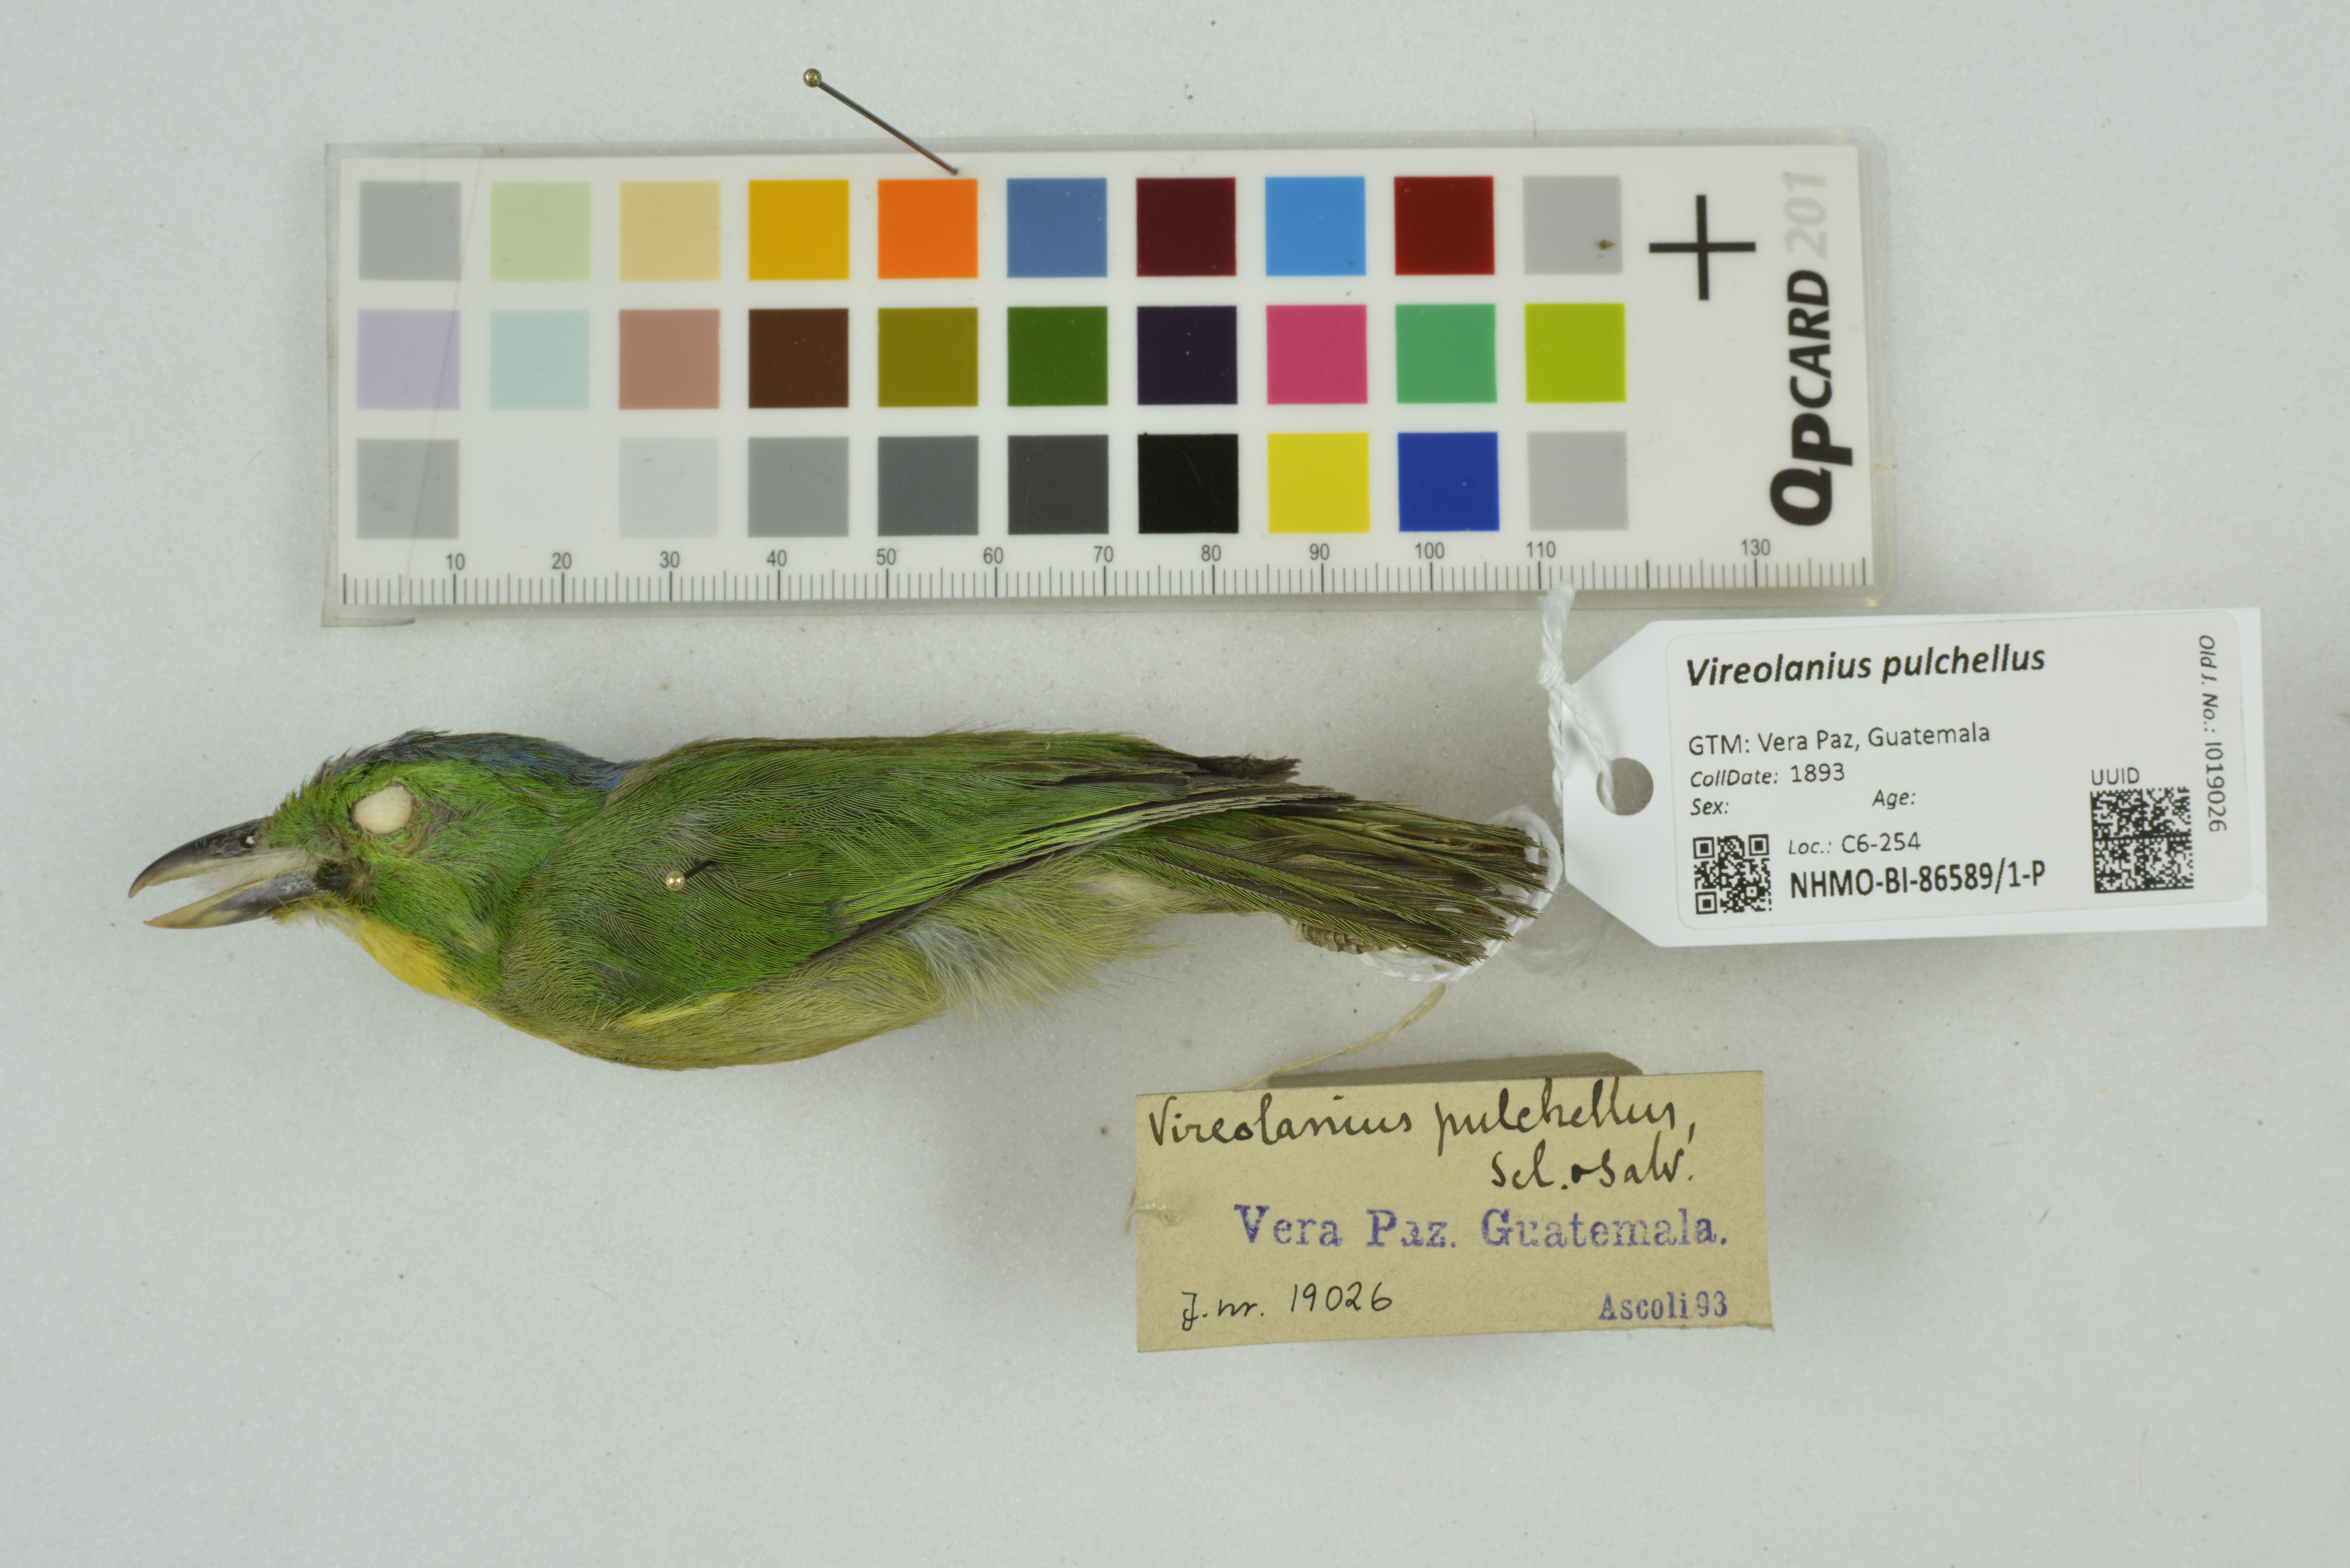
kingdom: Animalia
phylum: Chordata
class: Aves
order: Passeriformes
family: Vireonidae
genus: Vireolanius
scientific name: Vireolanius pulchellus
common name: Green shrike-vireo
